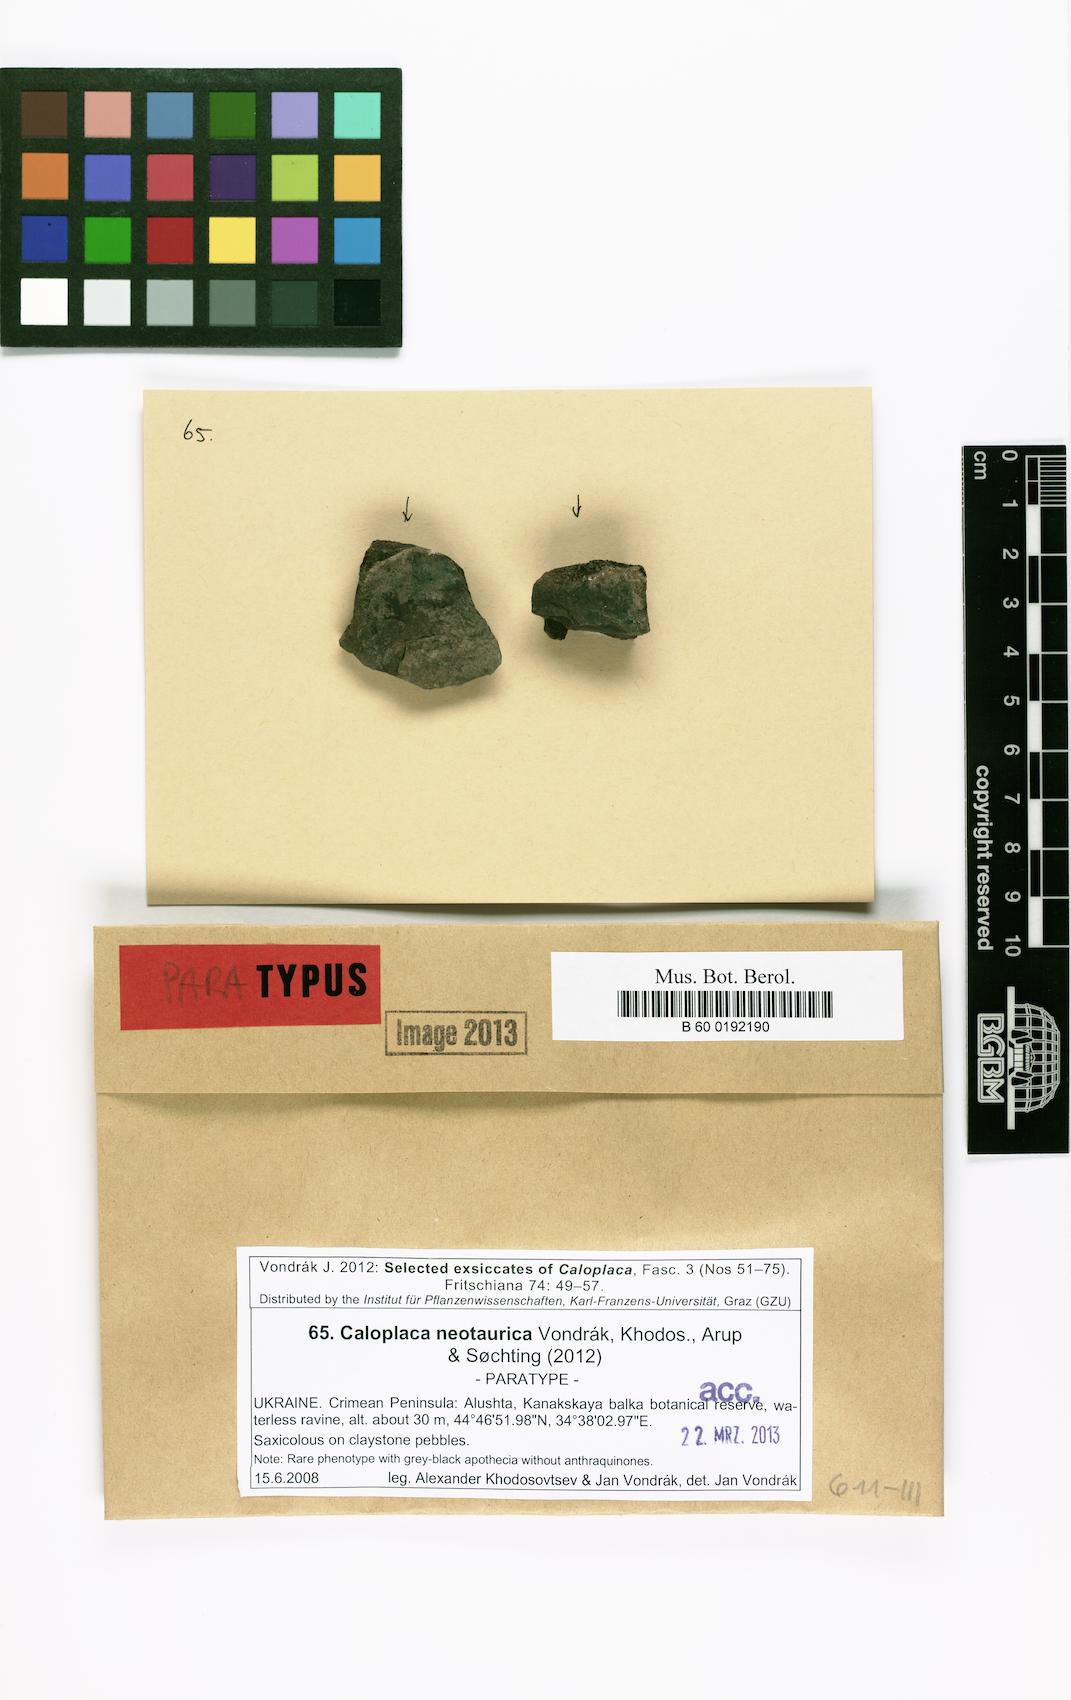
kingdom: Fungi
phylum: Ascomycota
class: Lecanoromycetes
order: Teloschistales
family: Teloschistaceae
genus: Kuettlingeria
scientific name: Kuettlingeria neotaurica
